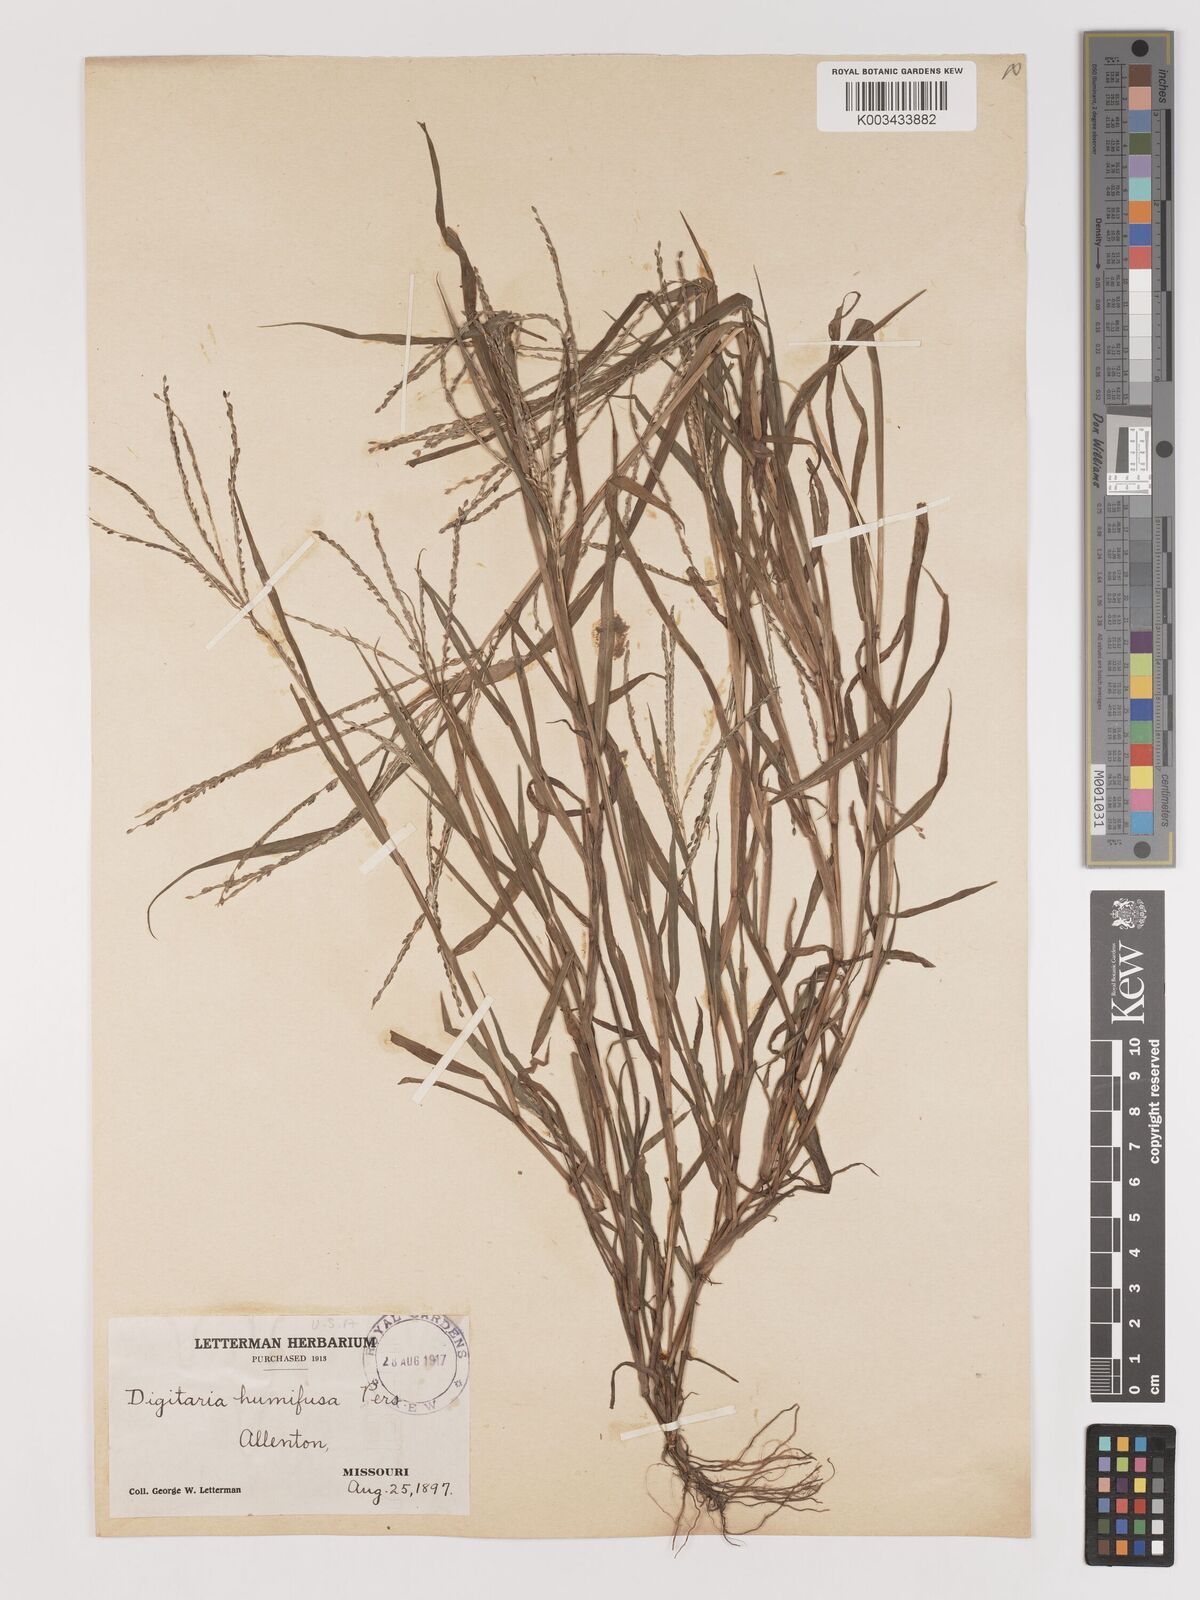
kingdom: Plantae
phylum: Tracheophyta
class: Liliopsida
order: Poales
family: Poaceae
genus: Digitaria
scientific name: Digitaria ischaemum
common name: Smooth crabgrass
